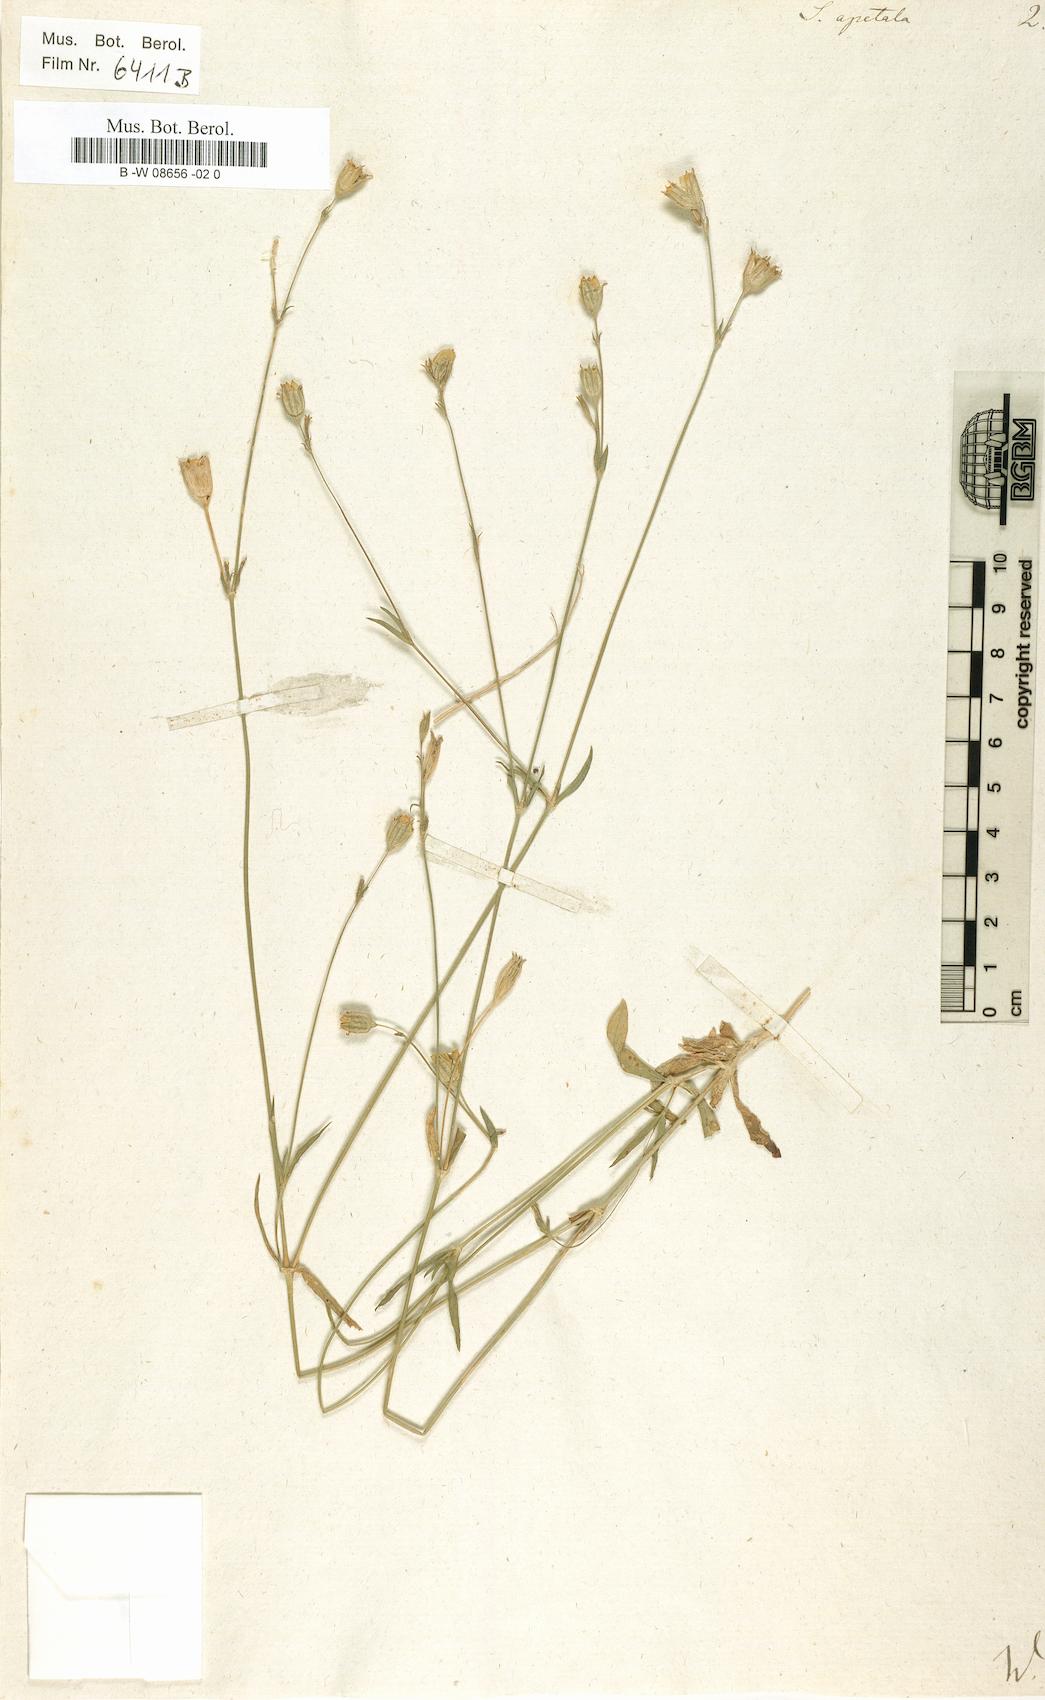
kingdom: Plantae
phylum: Tracheophyta
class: Magnoliopsida
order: Caryophyllales
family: Caryophyllaceae
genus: Silene
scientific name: Silene apetala
